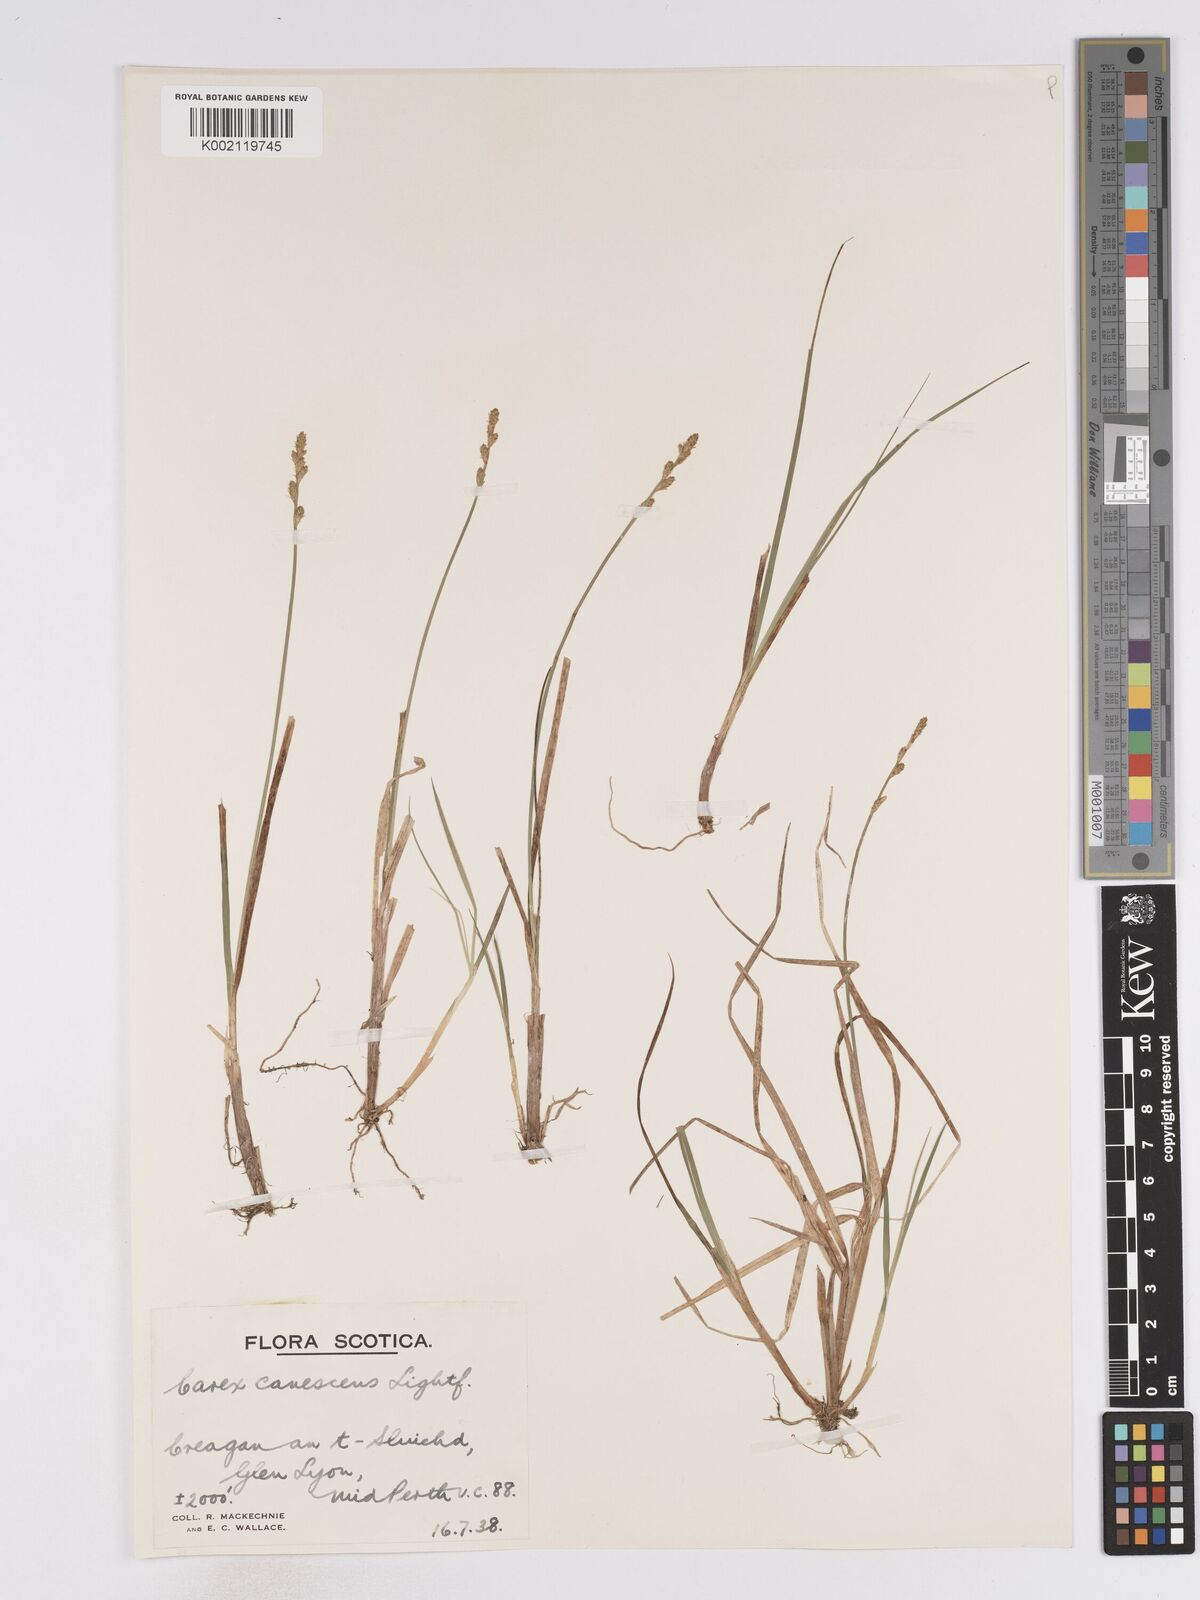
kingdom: Plantae
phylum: Tracheophyta
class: Liliopsida
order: Poales
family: Cyperaceae
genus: Carex
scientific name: Carex curta
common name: White sedge
